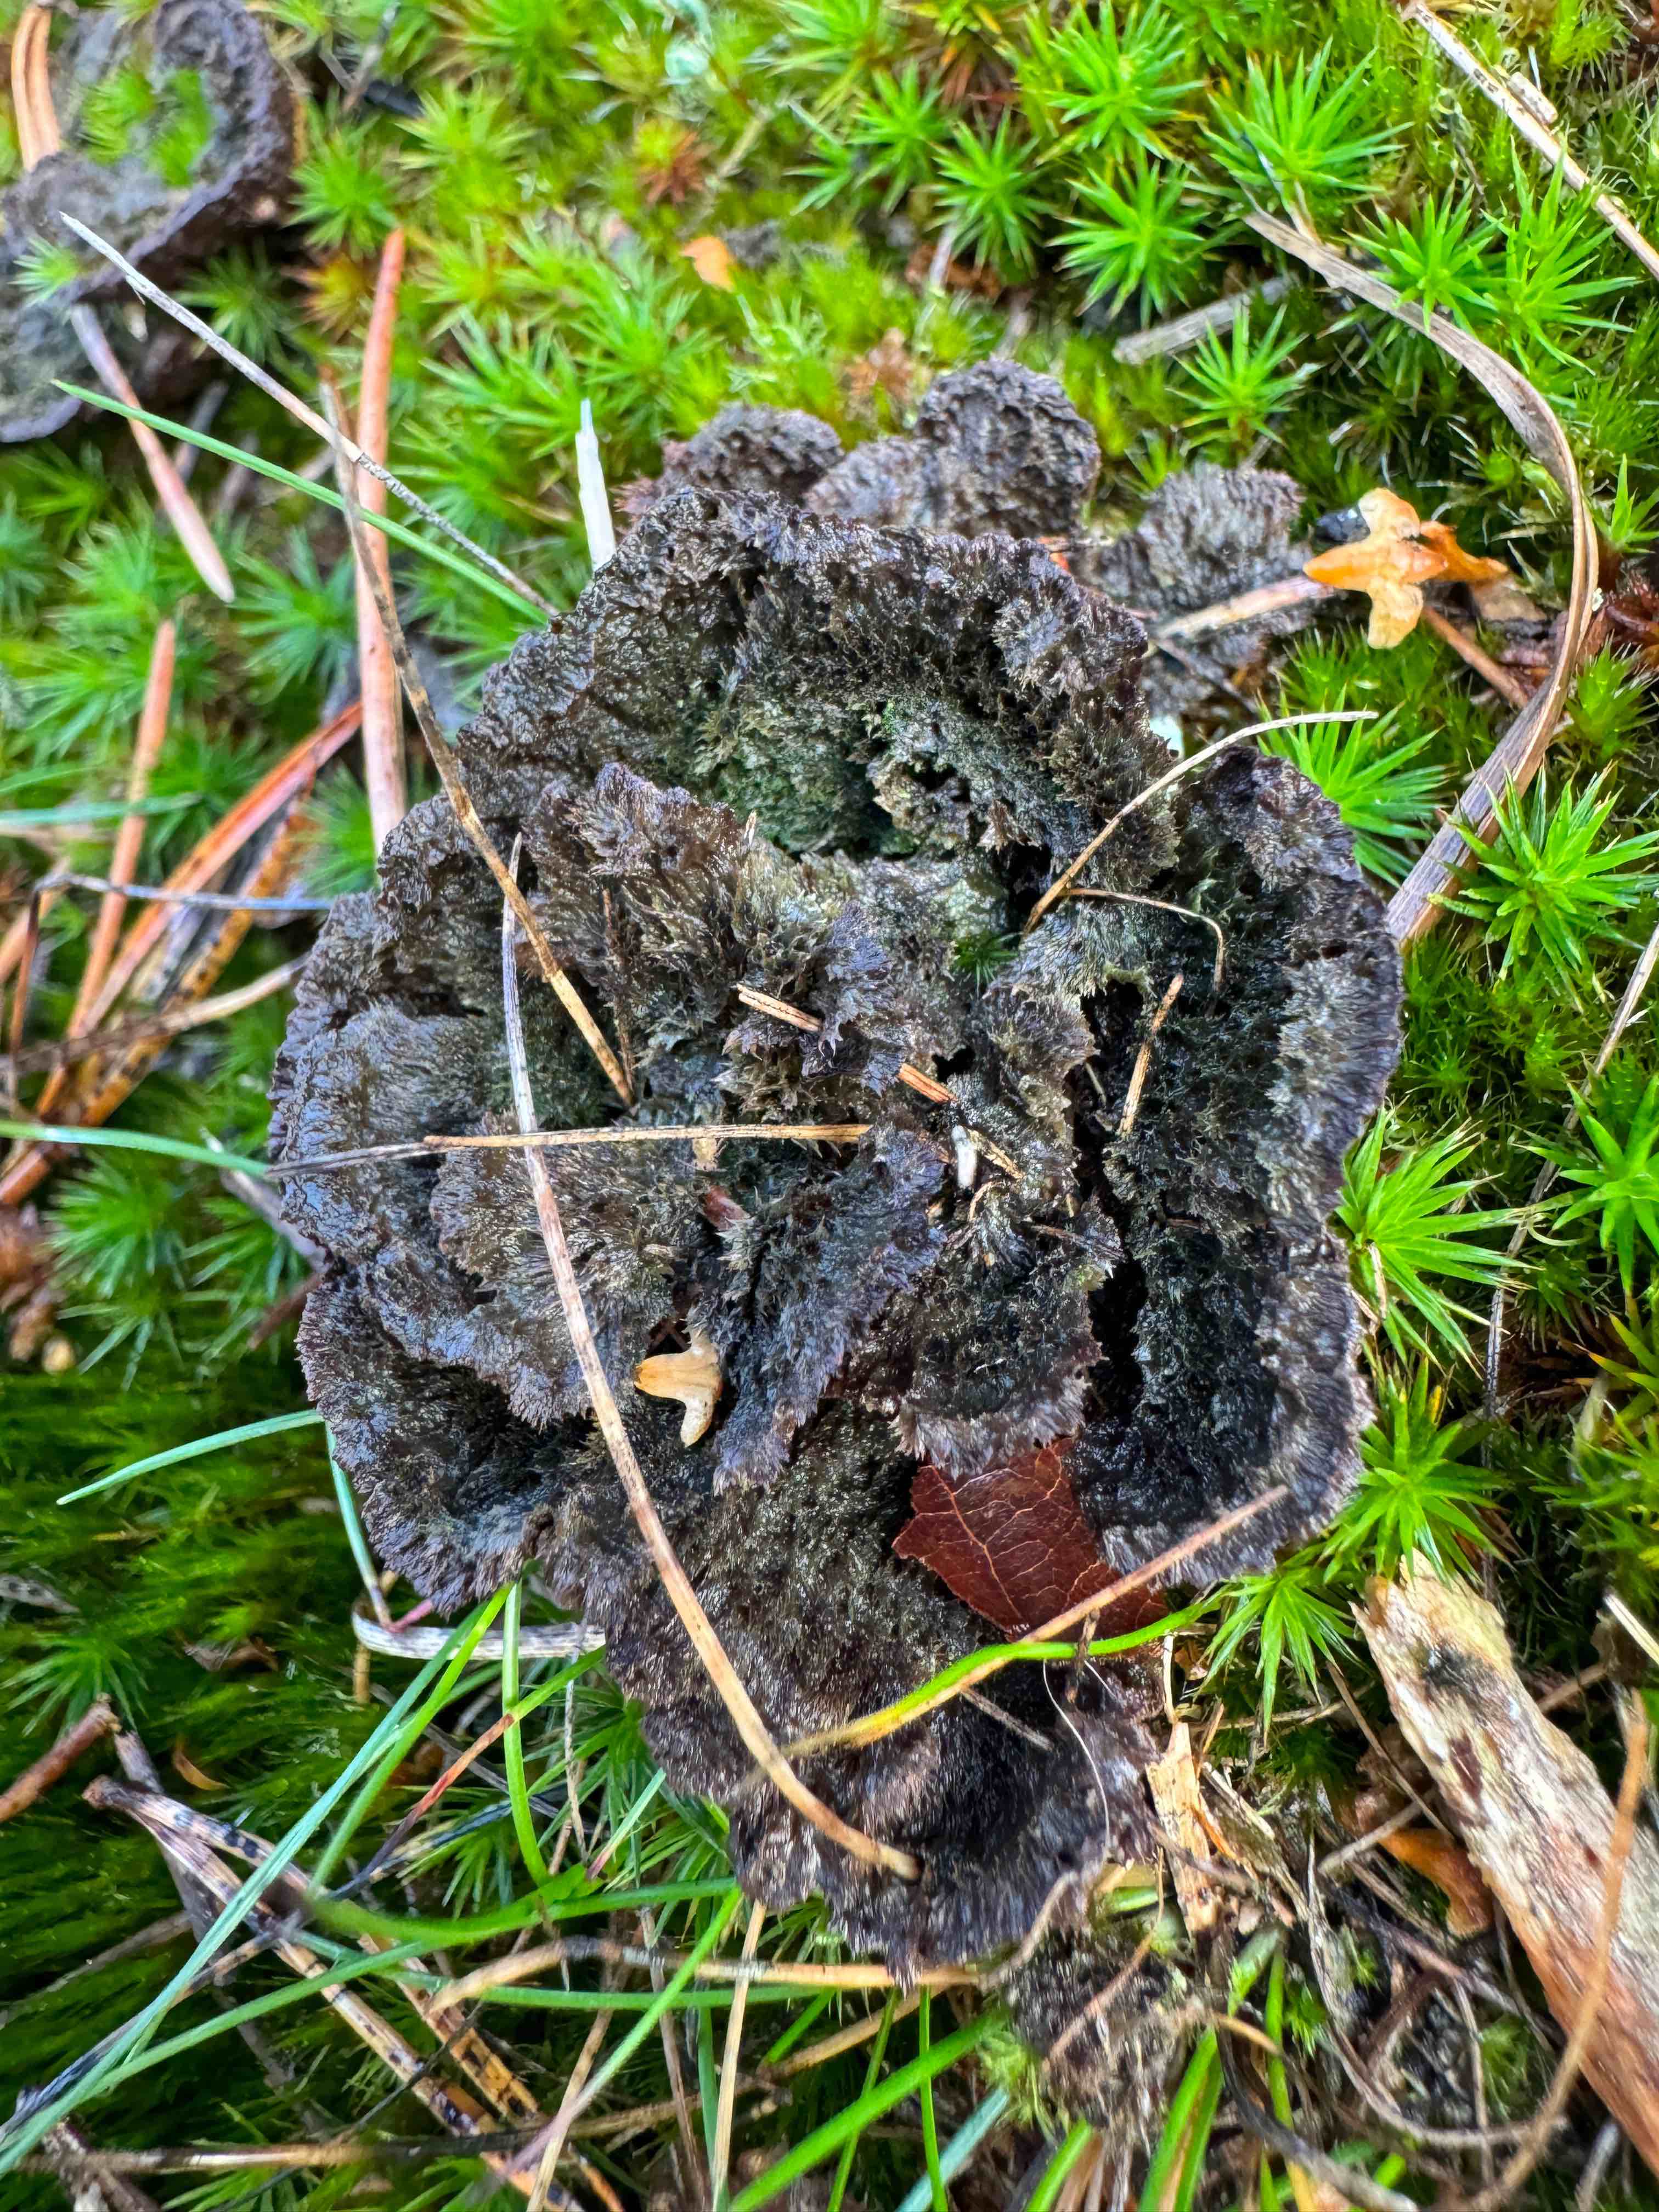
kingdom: Fungi
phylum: Basidiomycota
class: Agaricomycetes
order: Thelephorales
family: Thelephoraceae
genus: Thelephora
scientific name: Thelephora terrestris
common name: fliget frynsesvamp
